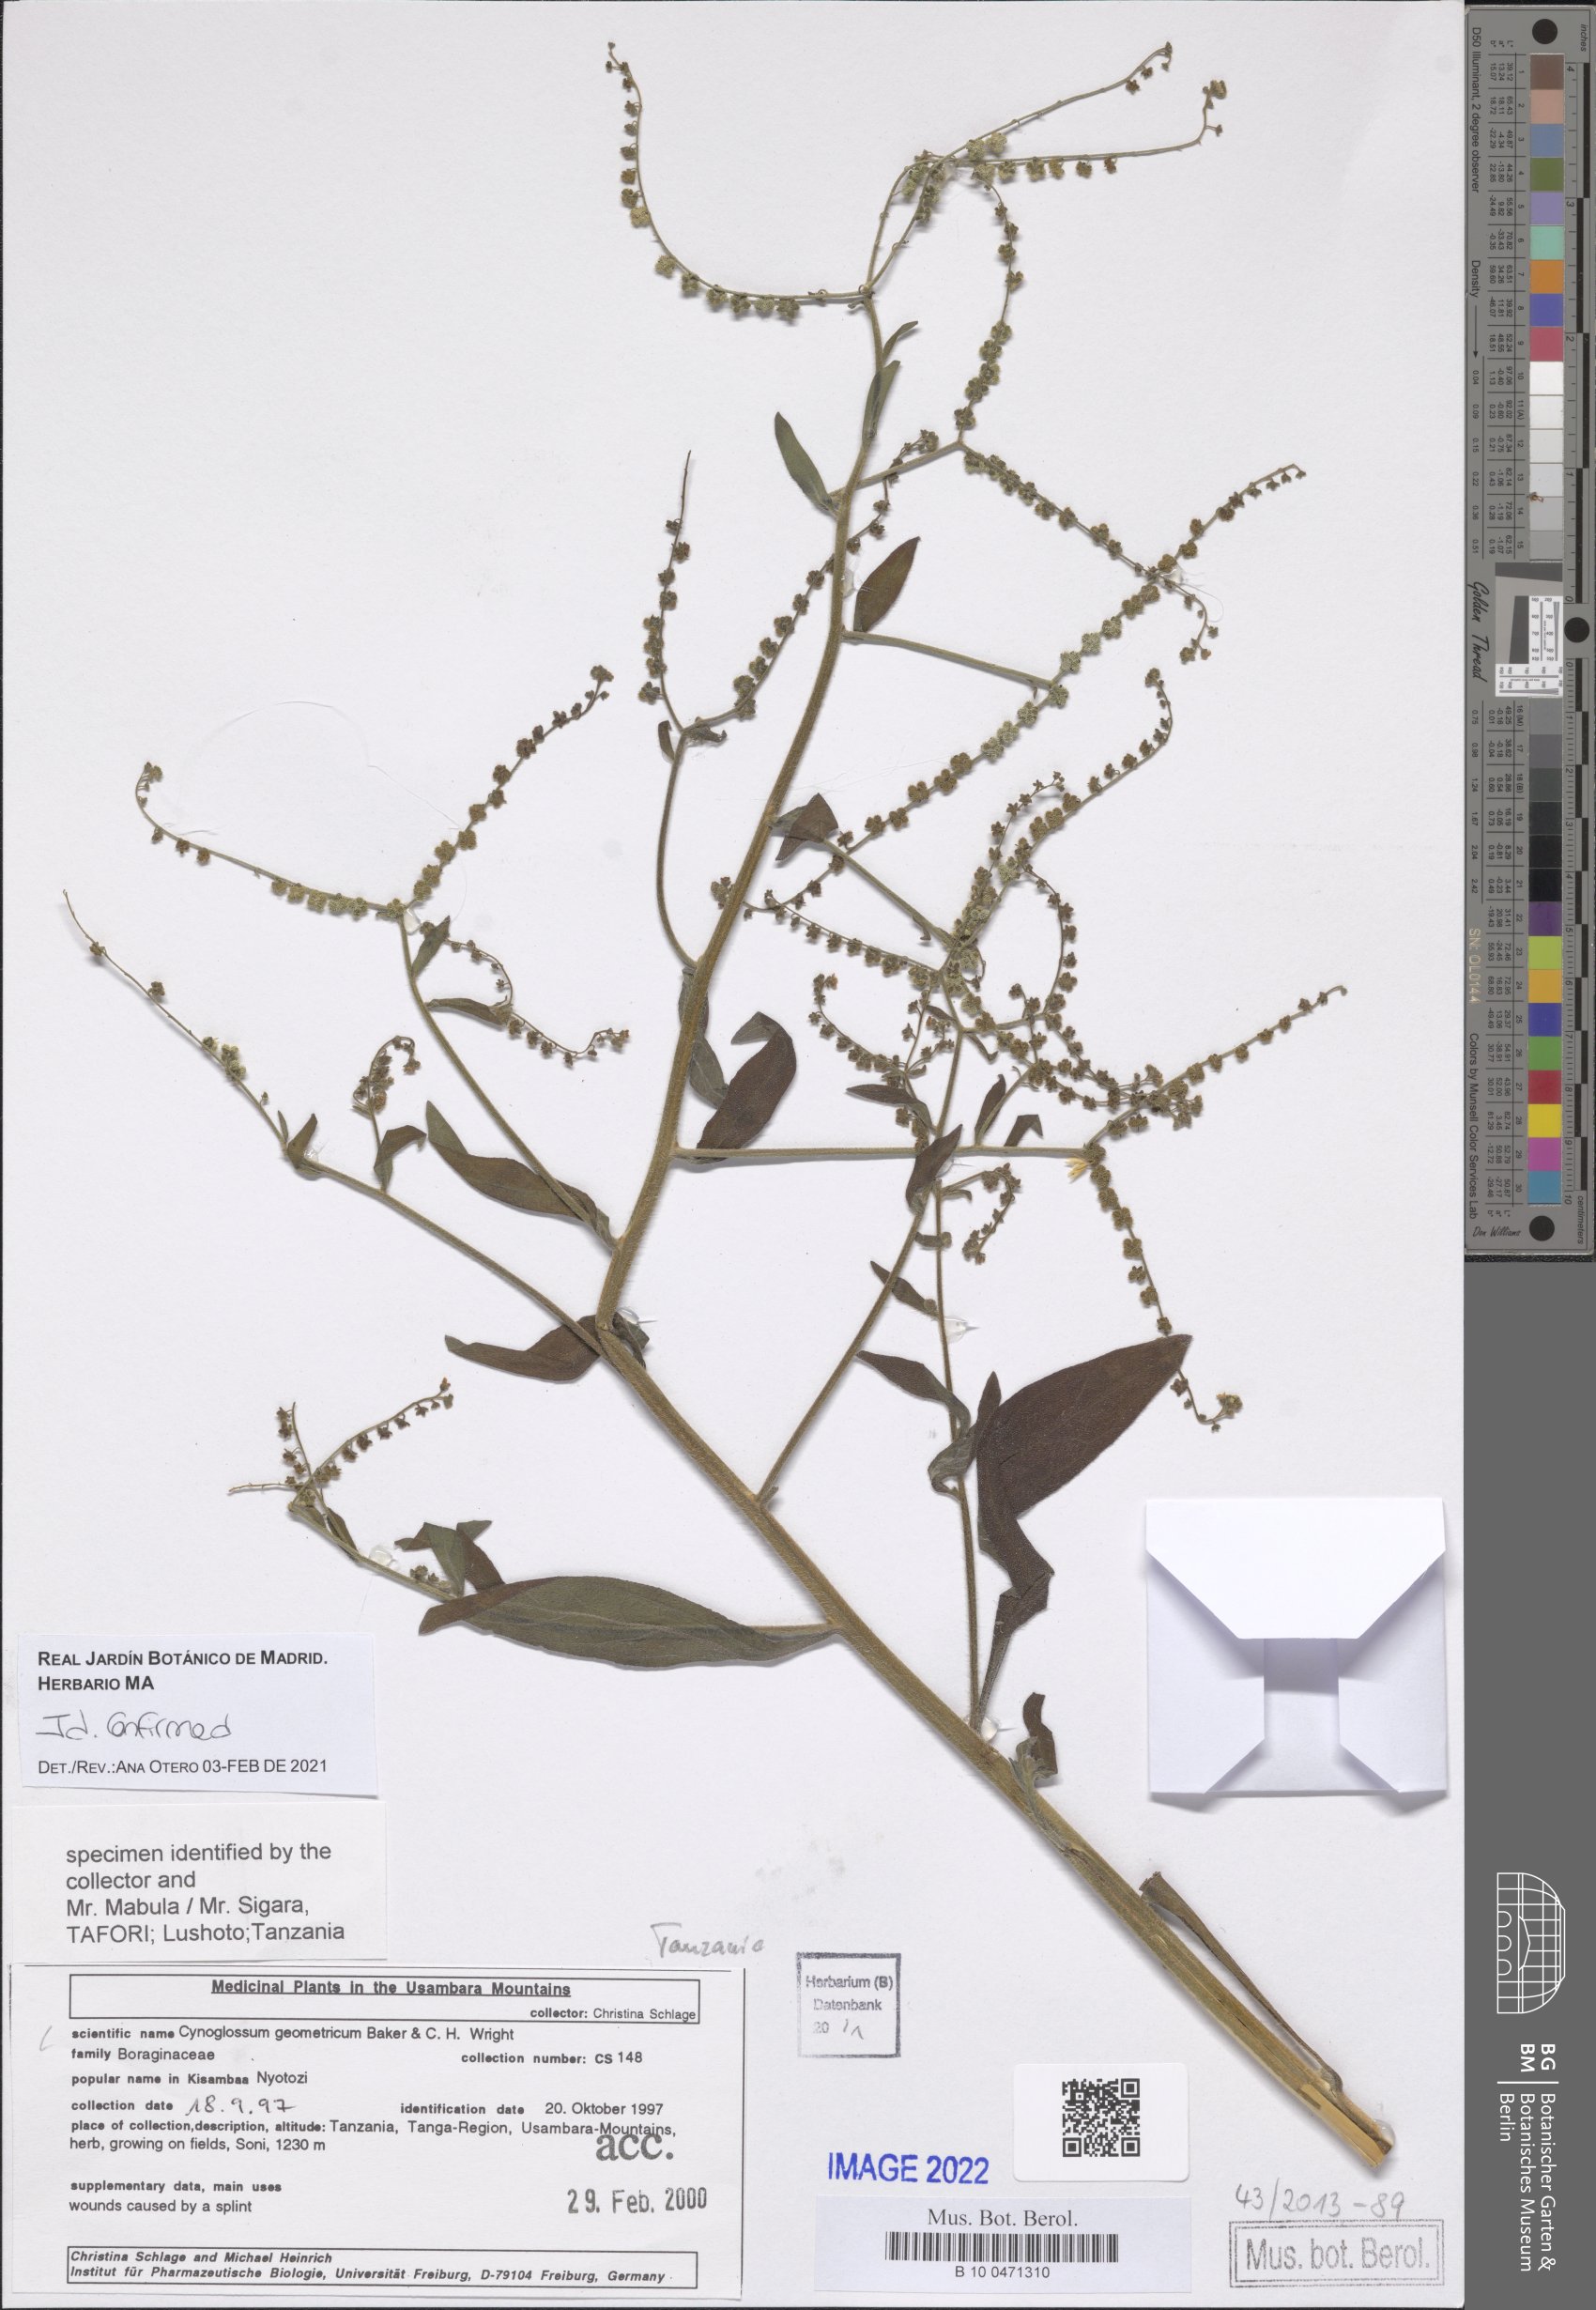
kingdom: Plantae
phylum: Tracheophyta
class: Magnoliopsida
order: Boraginales
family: Boraginaceae
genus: Paracynoglossum
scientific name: Paracynoglossum geometricum
